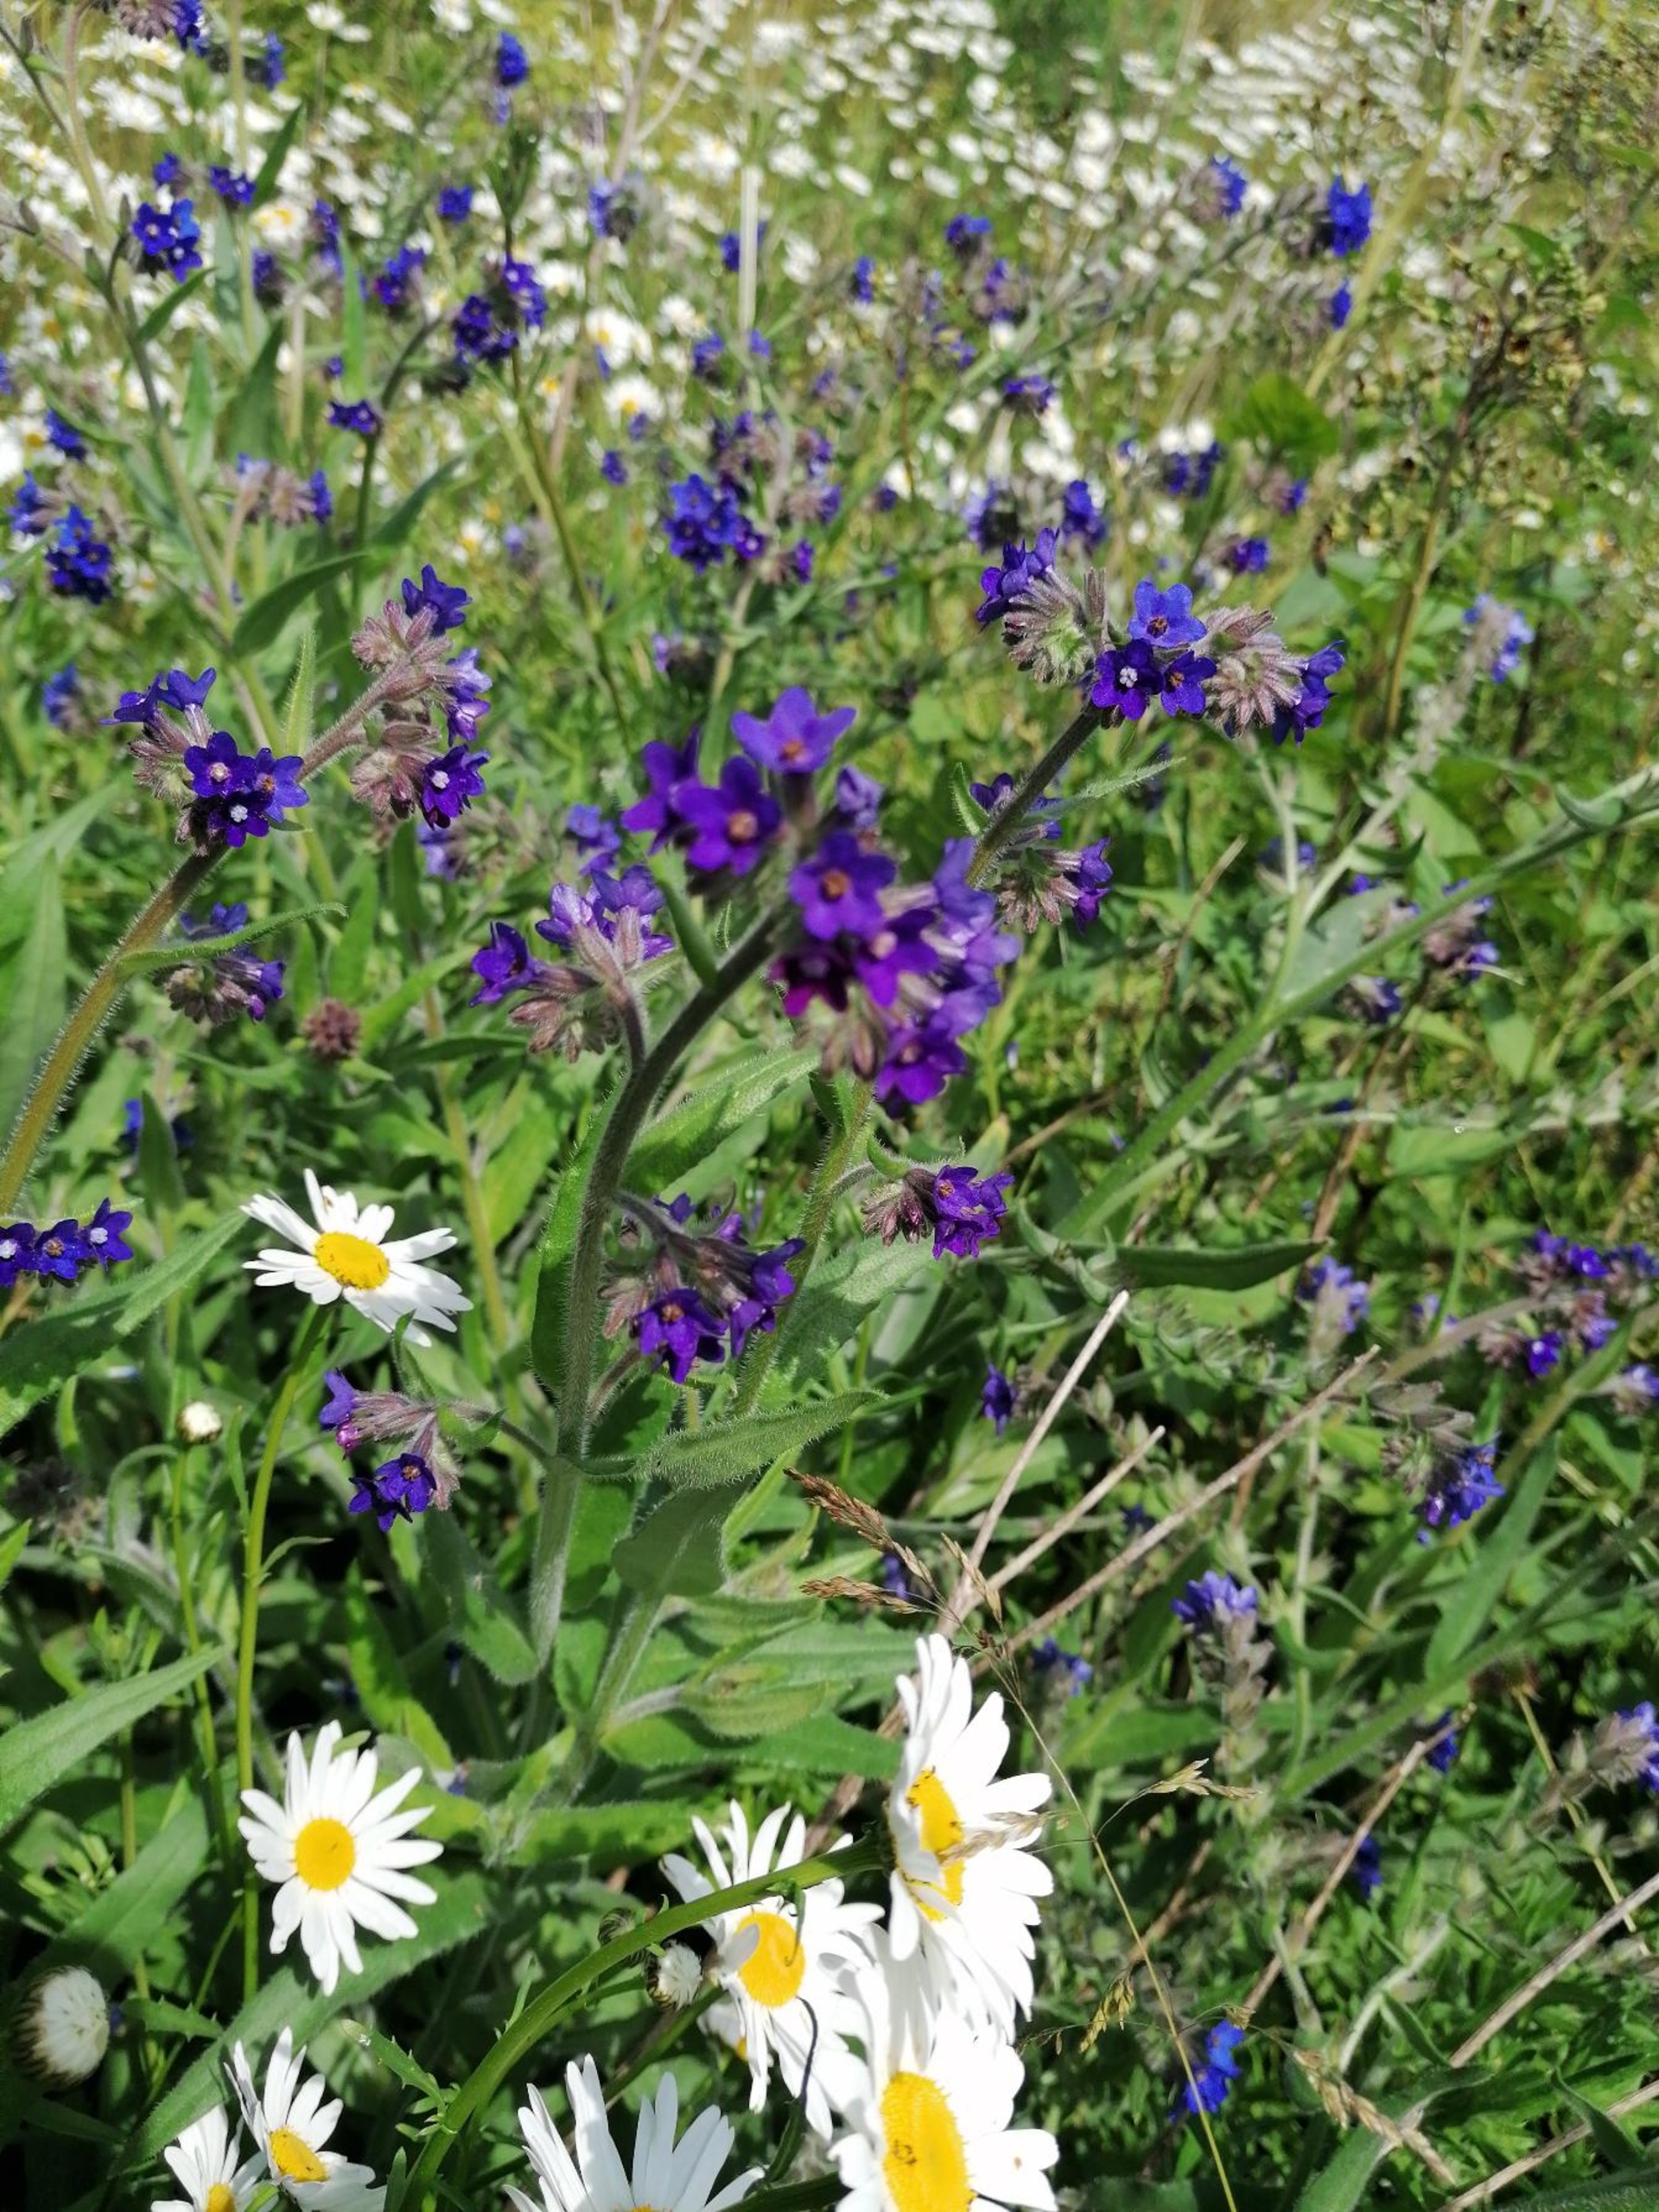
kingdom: Plantae
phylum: Tracheophyta
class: Magnoliopsida
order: Boraginales
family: Boraginaceae
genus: Anchusa
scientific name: Anchusa officinalis
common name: Læge-oksetunge
